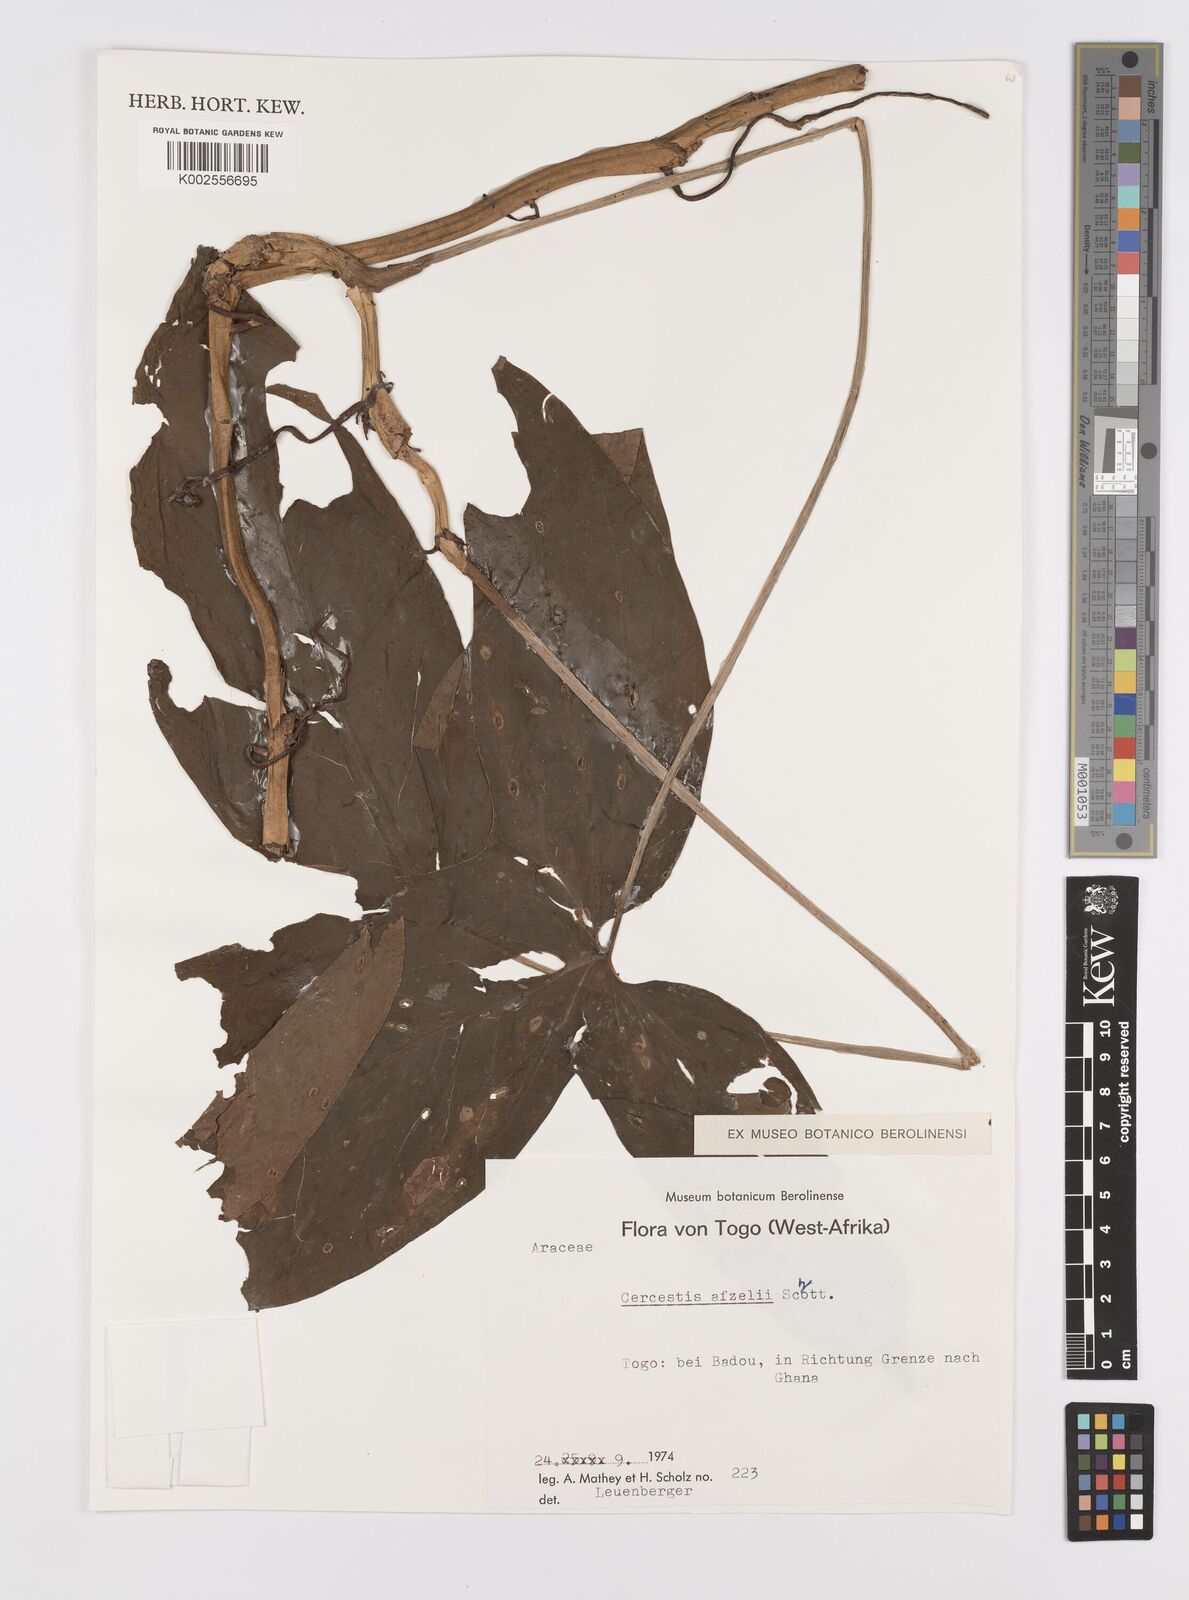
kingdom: Plantae
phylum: Tracheophyta
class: Liliopsida
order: Alismatales
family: Araceae
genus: Cercestis
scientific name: Cercestis afzelii
